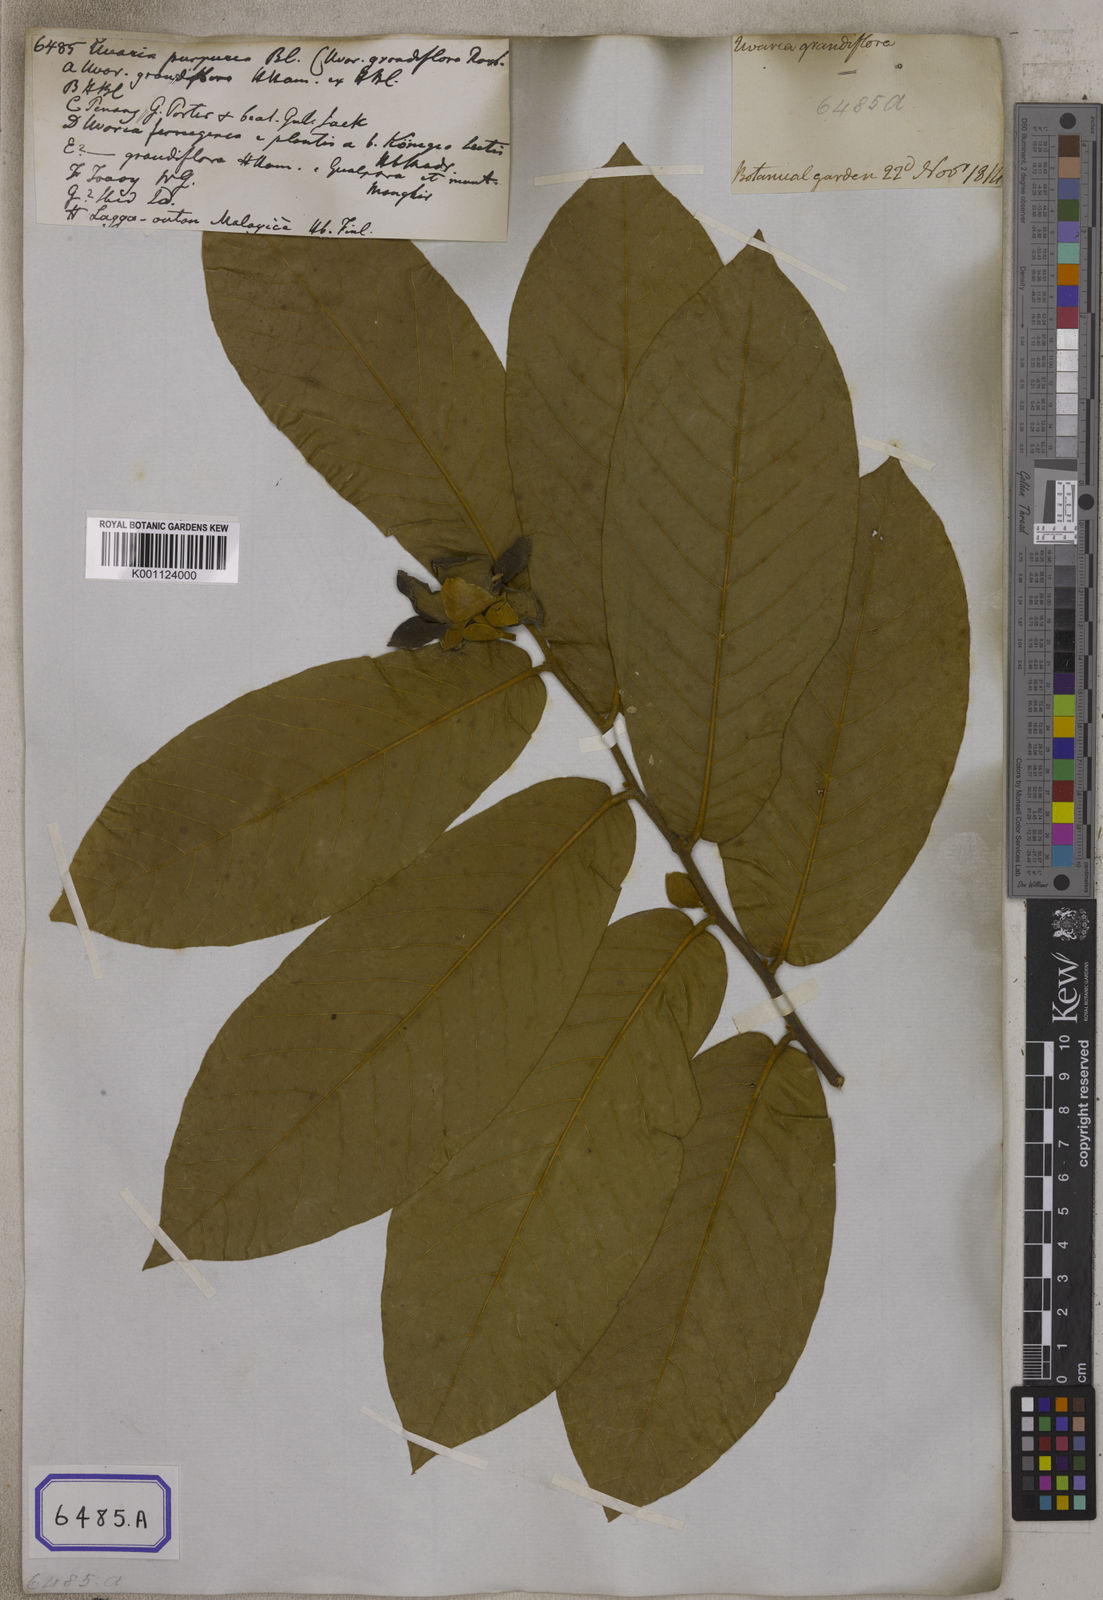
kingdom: Plantae
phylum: Tracheophyta
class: Magnoliopsida
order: Magnoliales
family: Annonaceae
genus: Uvaria
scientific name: Uvaria grandiflora
